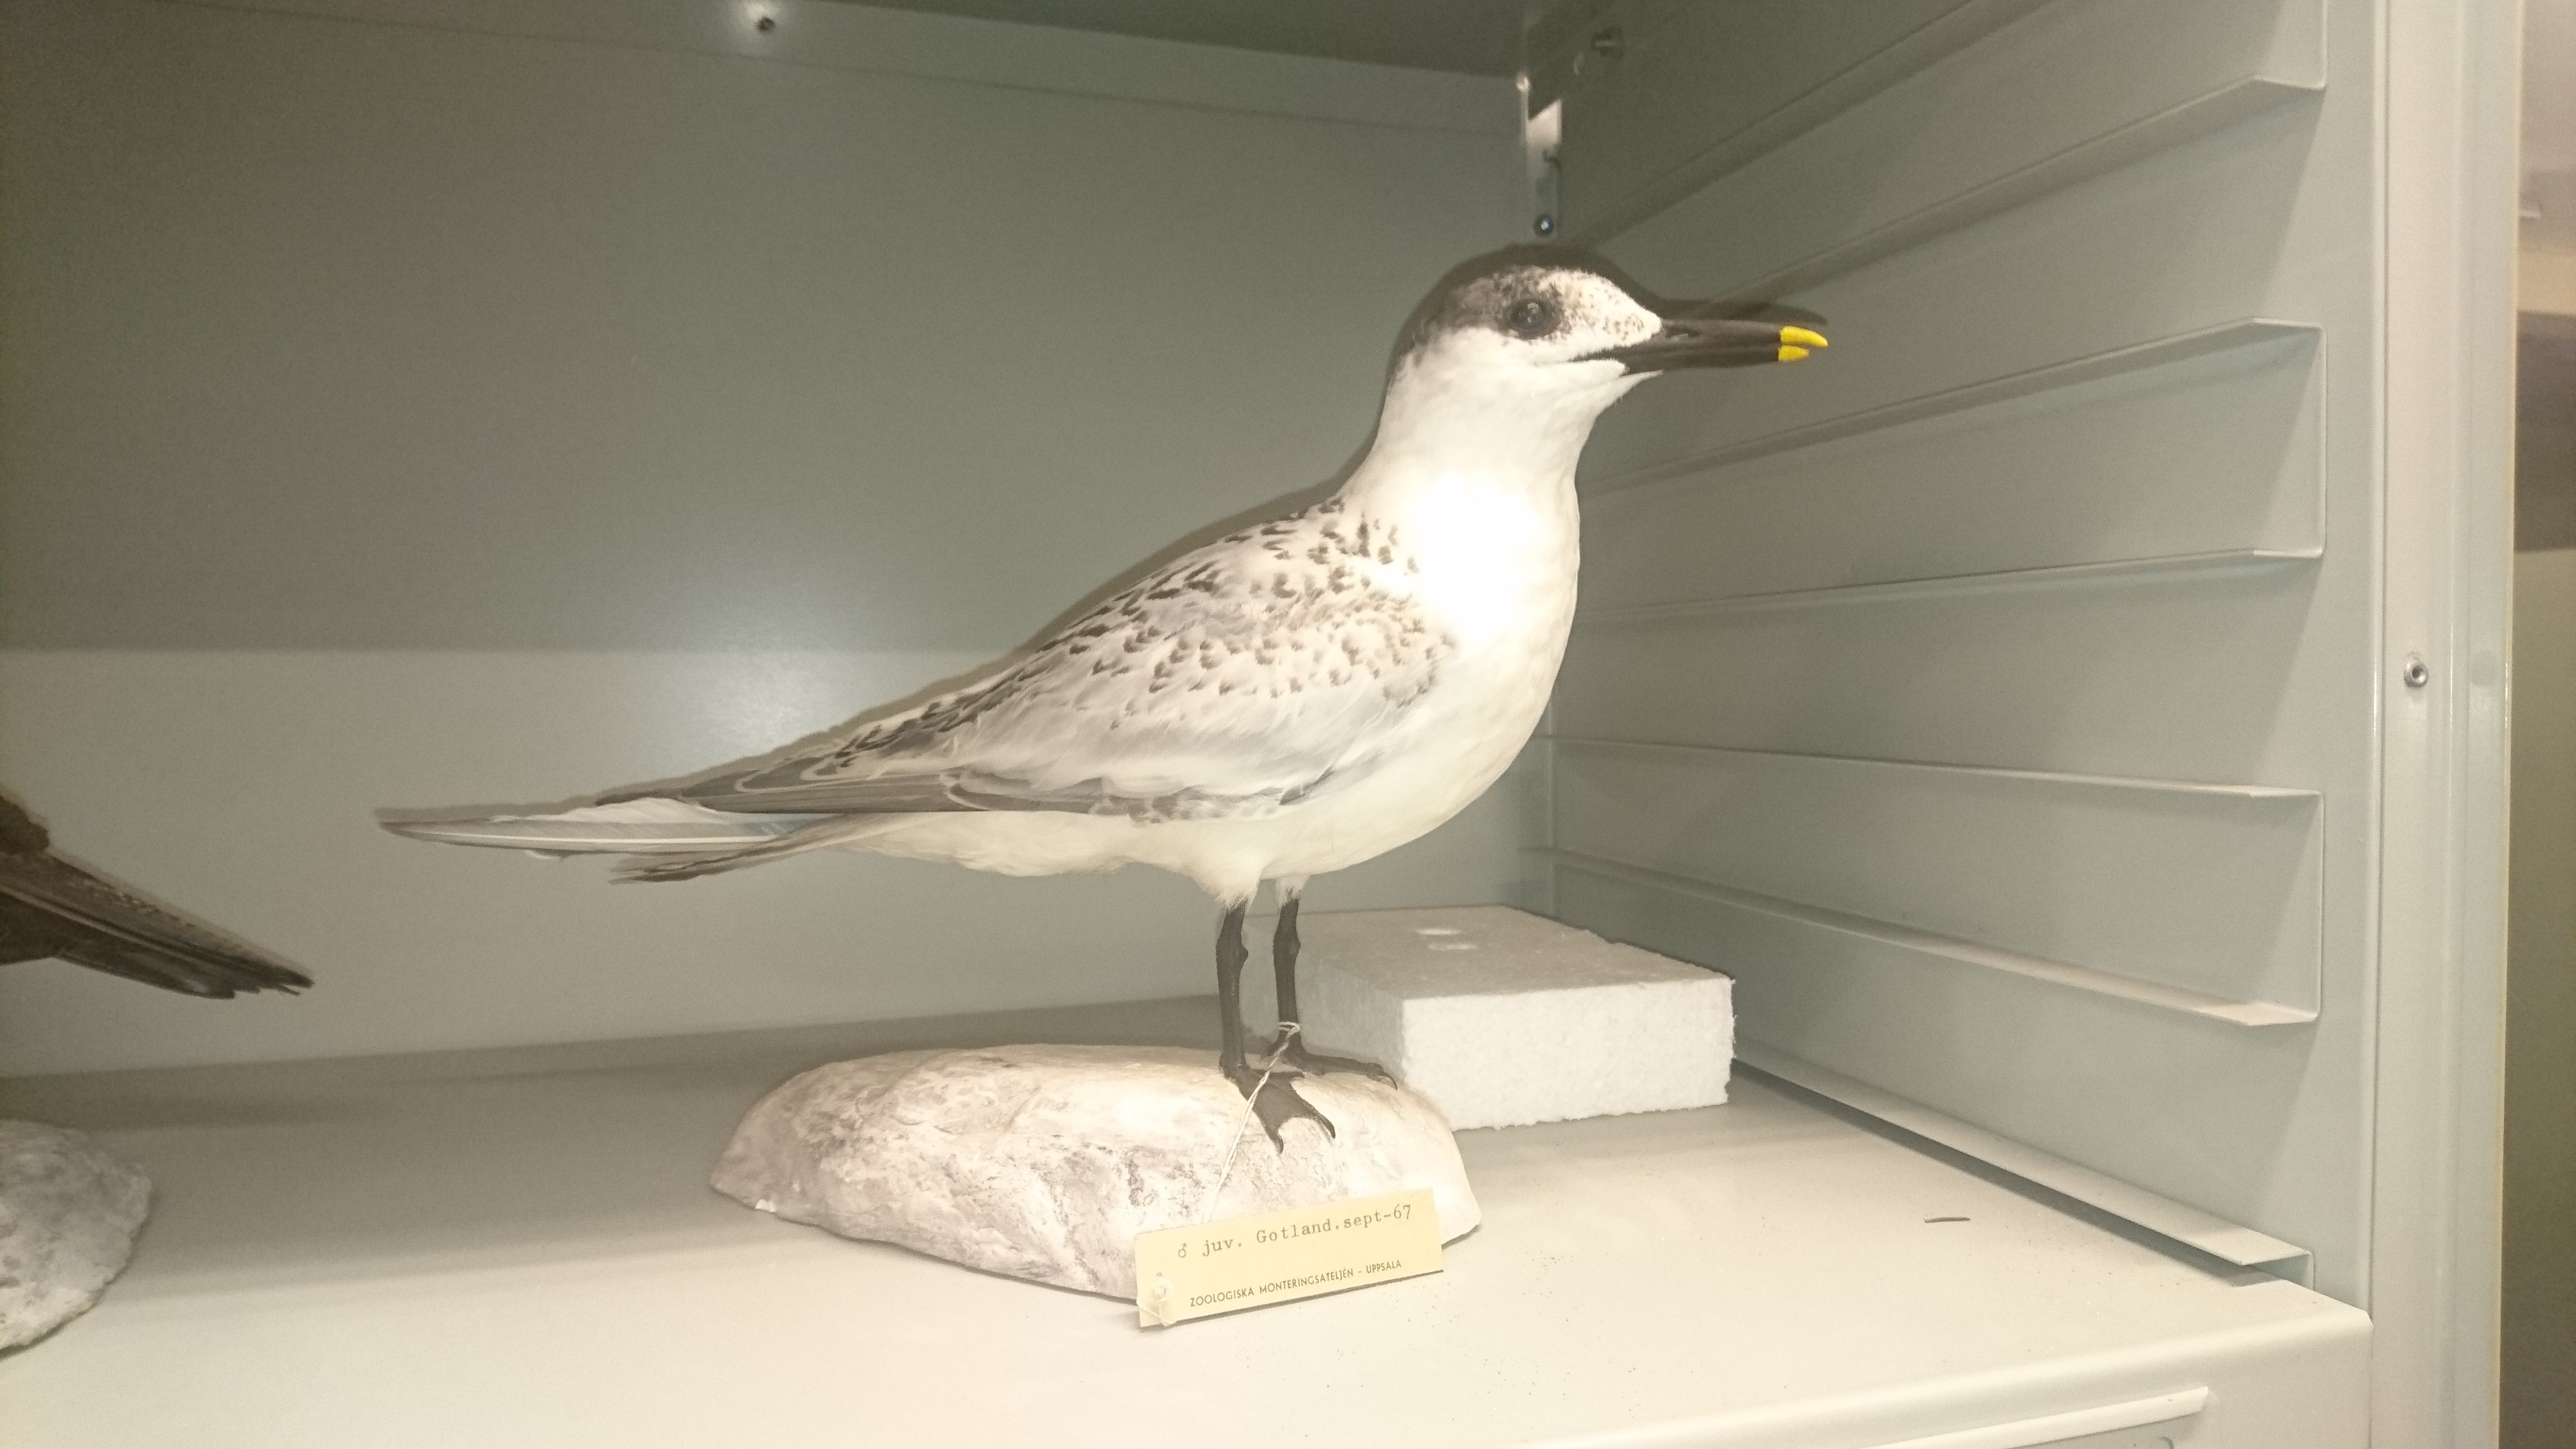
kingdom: Animalia
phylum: Chordata
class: Aves
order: Charadriiformes
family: Laridae
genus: Thalasseus
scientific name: Thalasseus sandvicensis
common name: Sandwich tern
